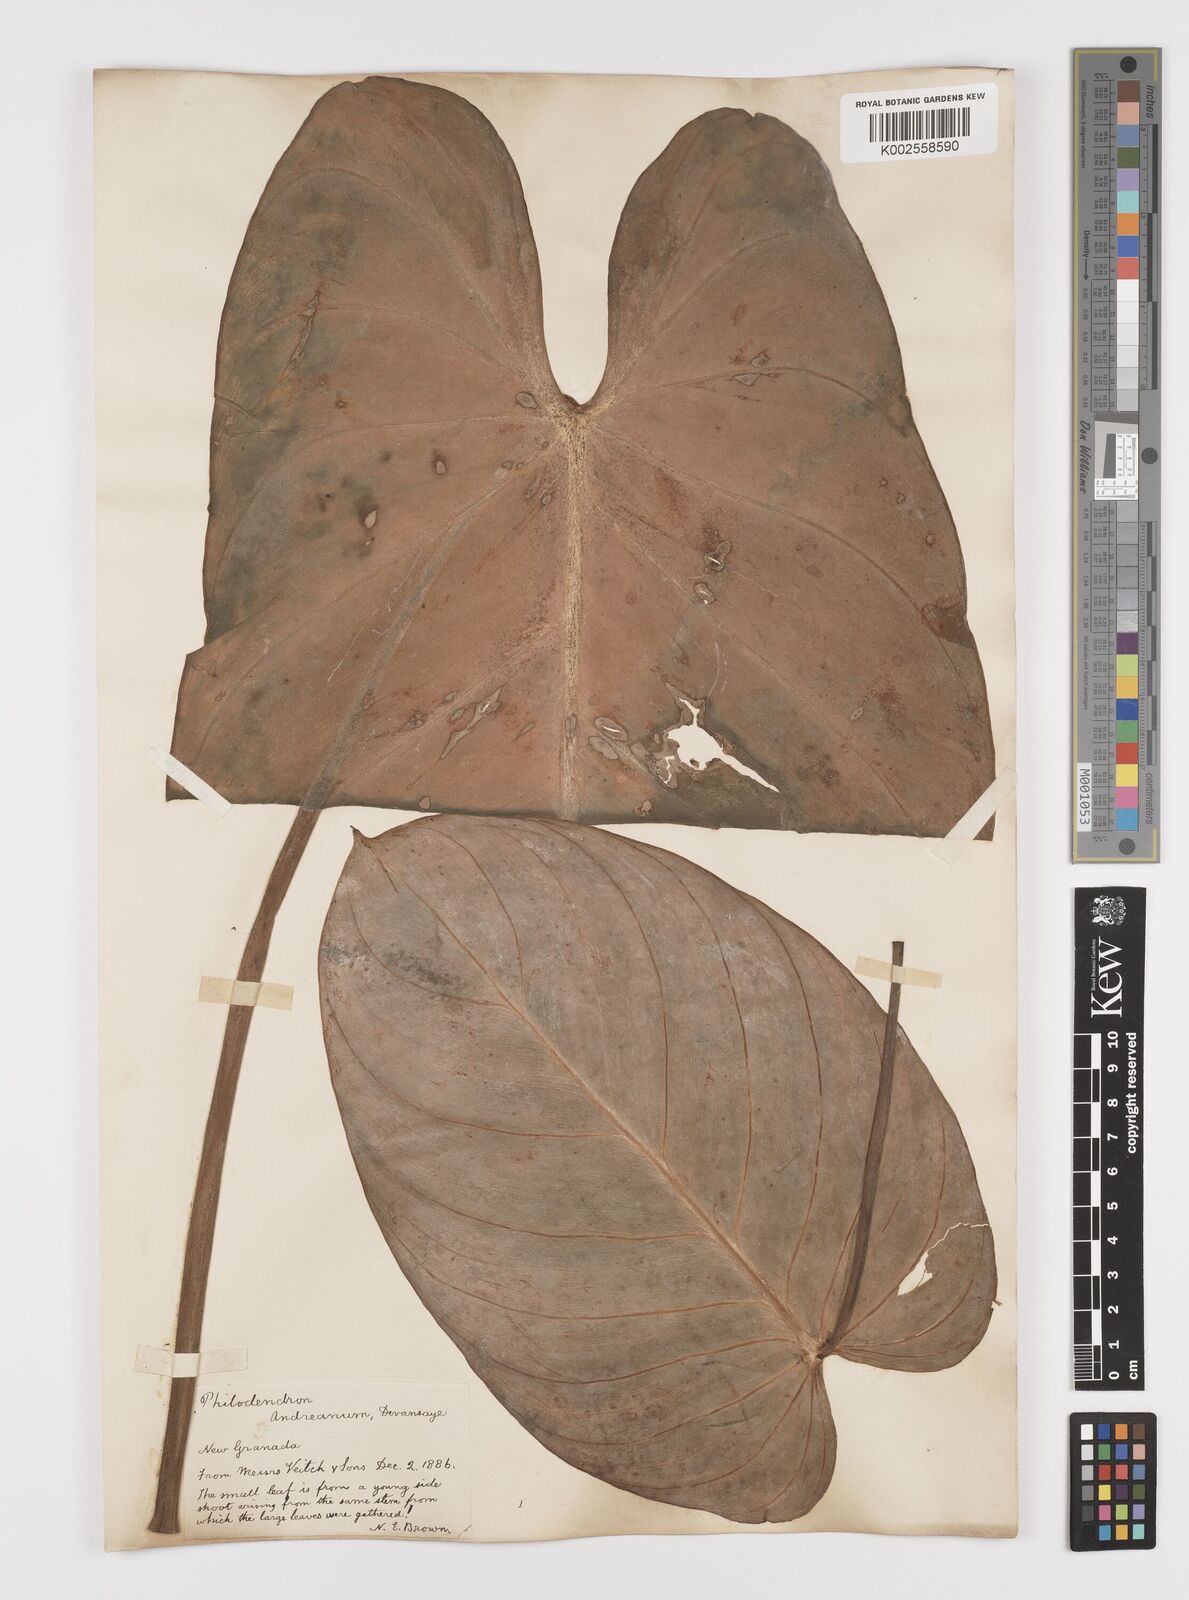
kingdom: Plantae
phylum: Tracheophyta
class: Liliopsida
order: Alismatales
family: Araceae
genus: Philodendron
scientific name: Philodendron melanochrysum
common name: Black-gold philodendron
